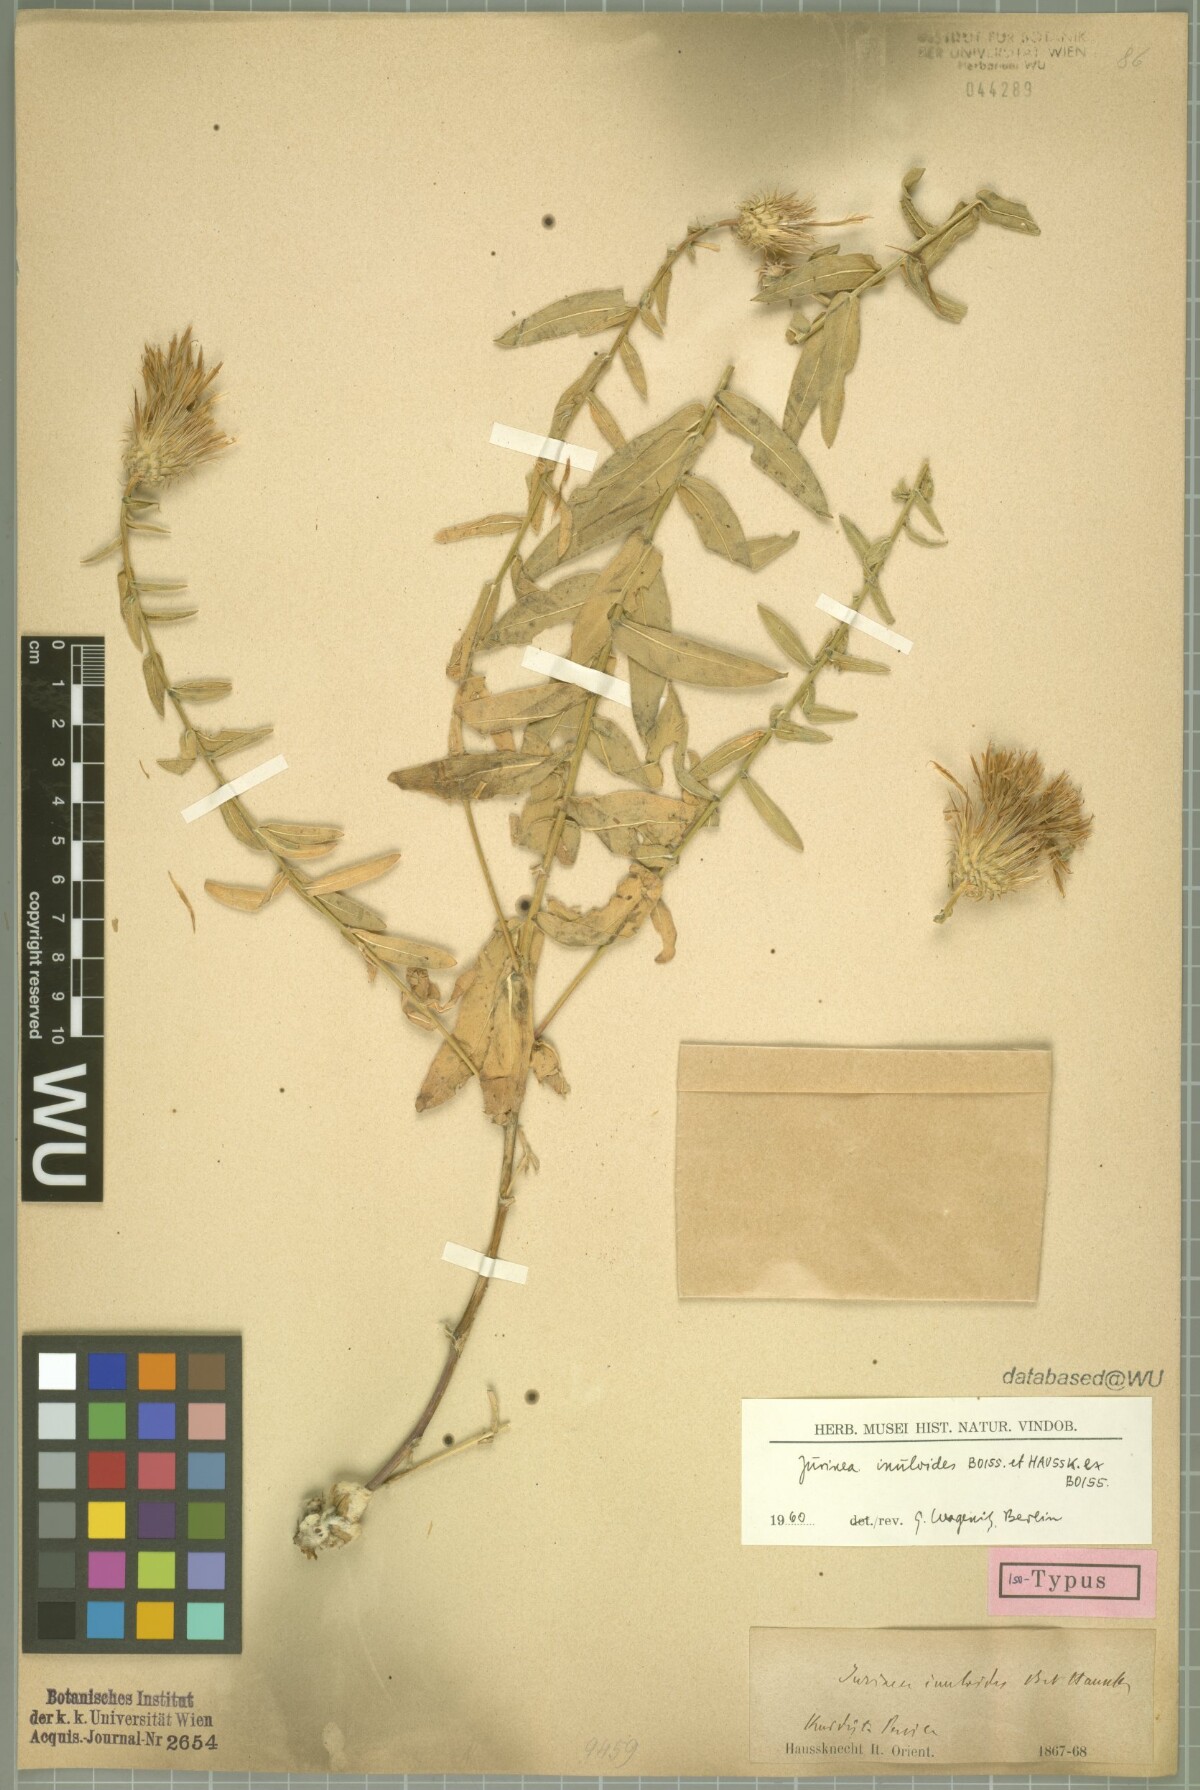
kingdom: Plantae
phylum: Tracheophyta
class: Magnoliopsida
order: Asterales
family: Asteraceae
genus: Jurinea
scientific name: Jurinea inuloides
